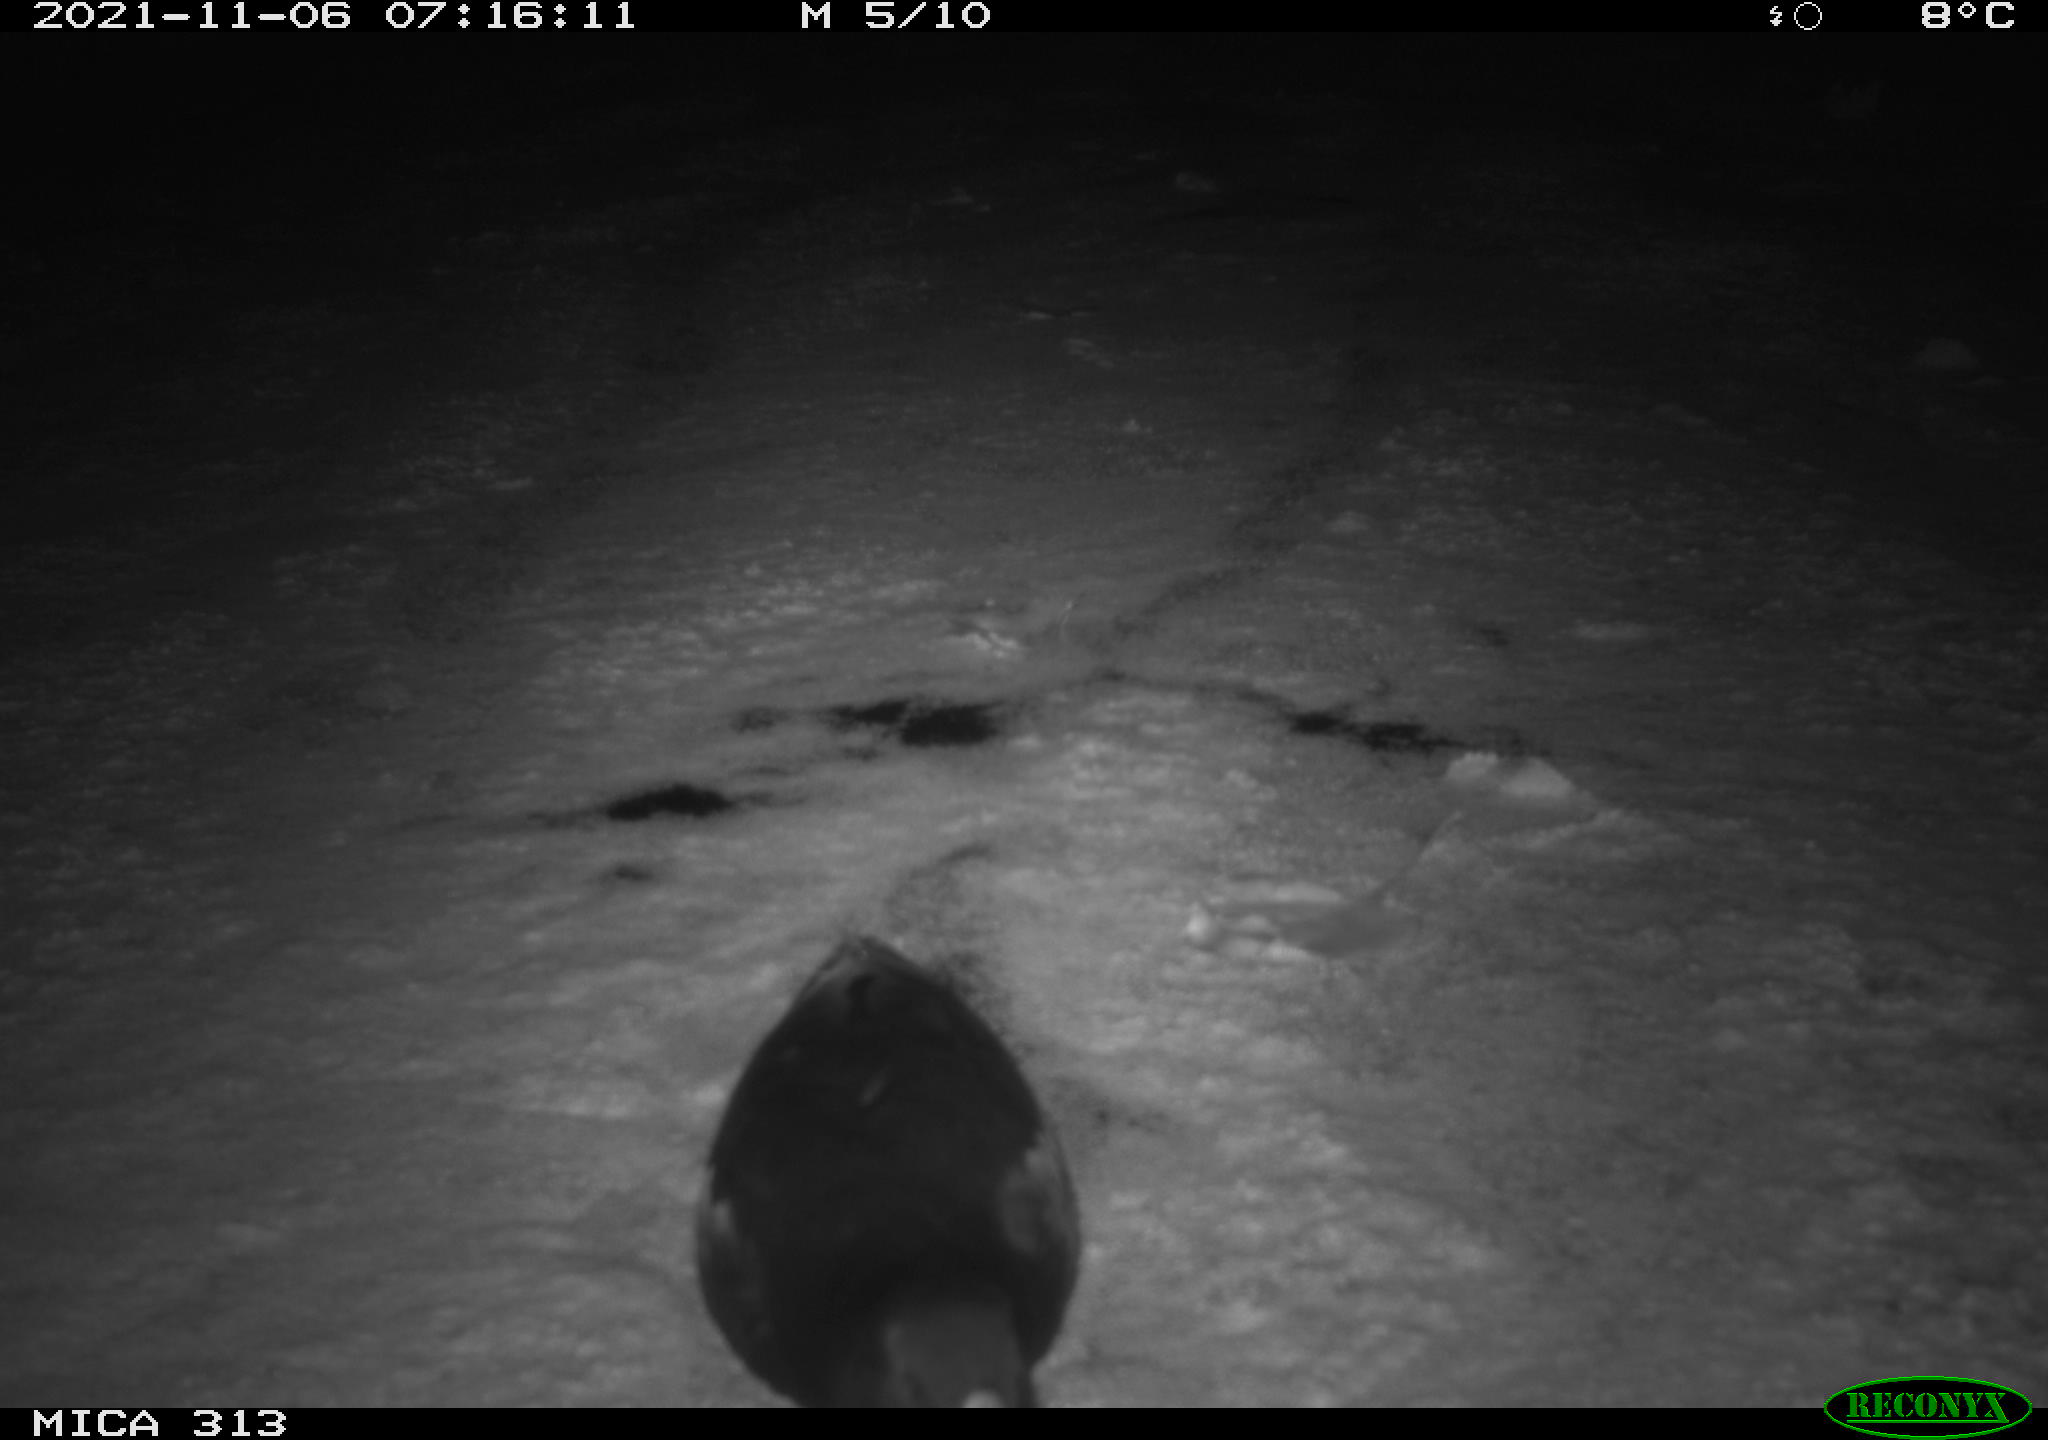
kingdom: Animalia
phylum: Chordata
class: Aves
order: Gruiformes
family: Rallidae
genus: Gallinula
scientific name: Gallinula chloropus
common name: Common moorhen
